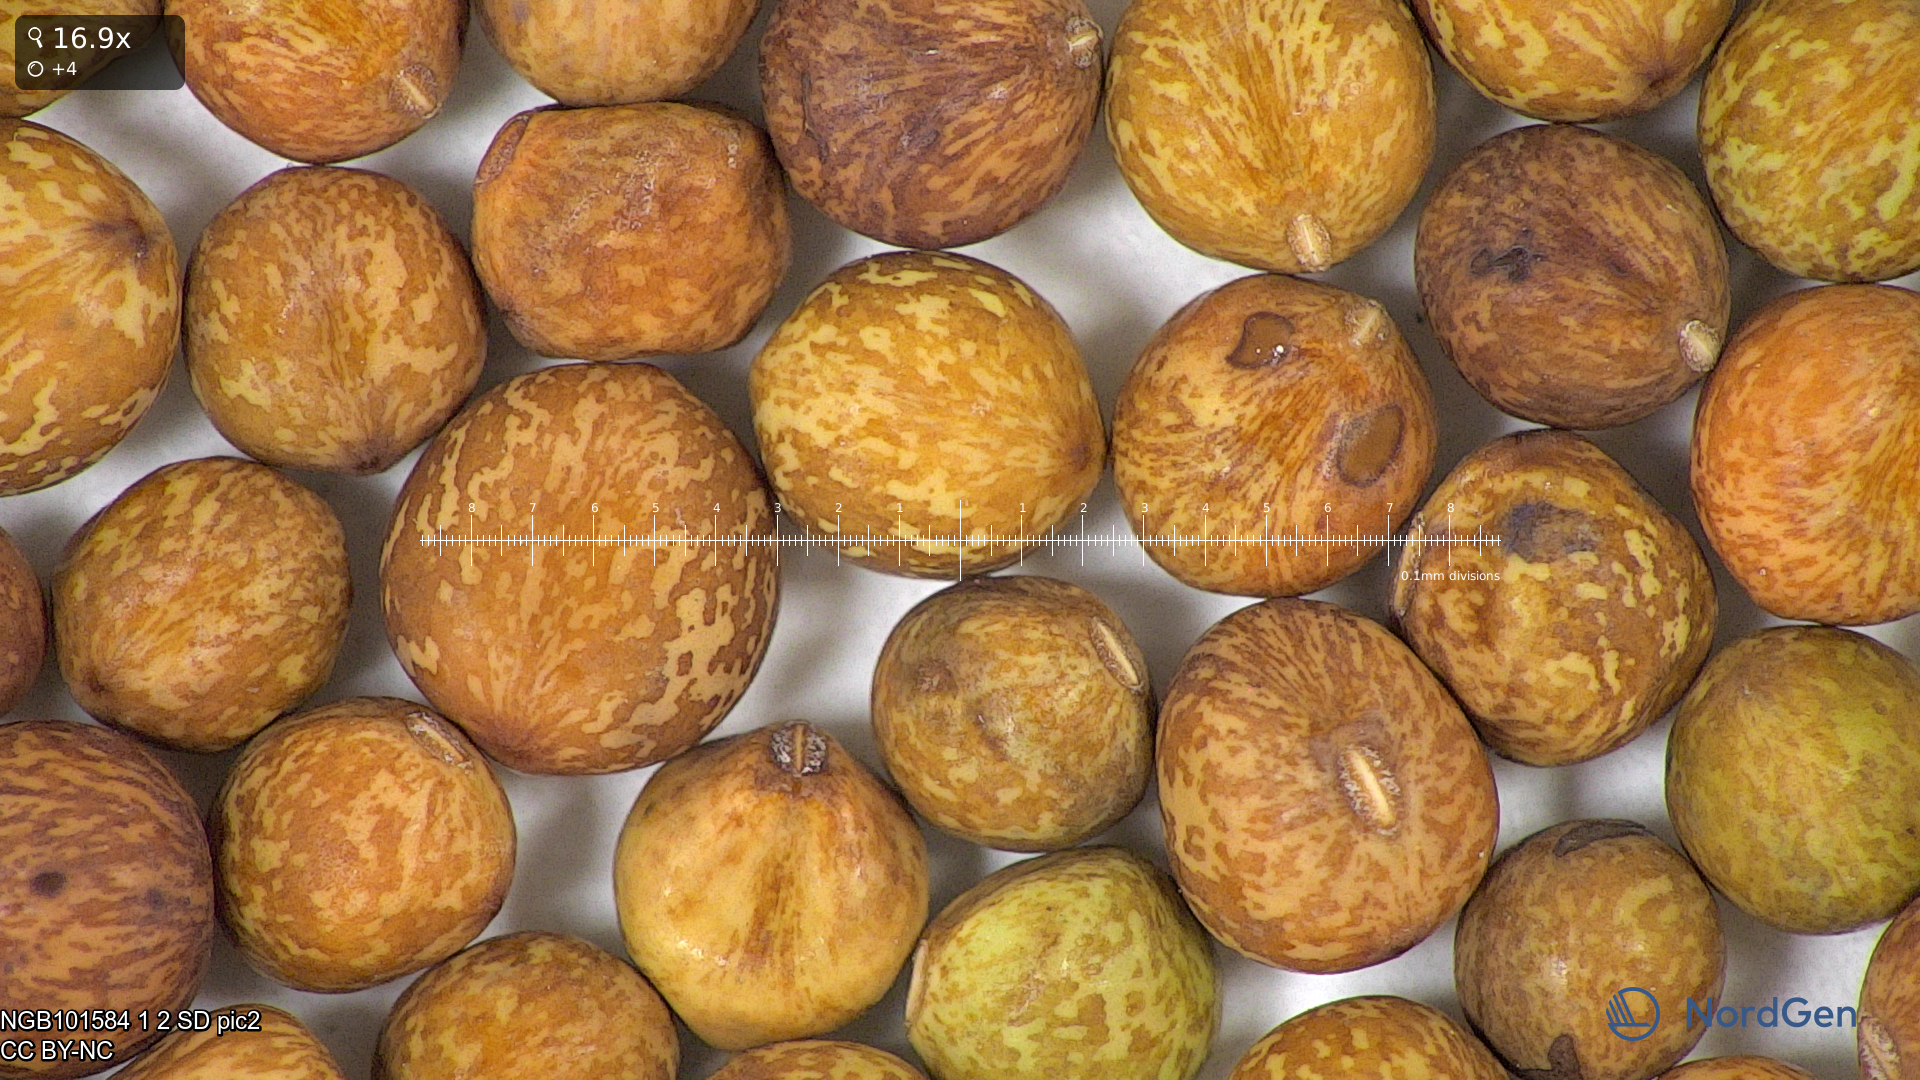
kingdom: Plantae
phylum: Tracheophyta
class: Magnoliopsida
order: Fabales
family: Fabaceae
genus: Lathyrus
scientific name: Lathyrus oleraceus
